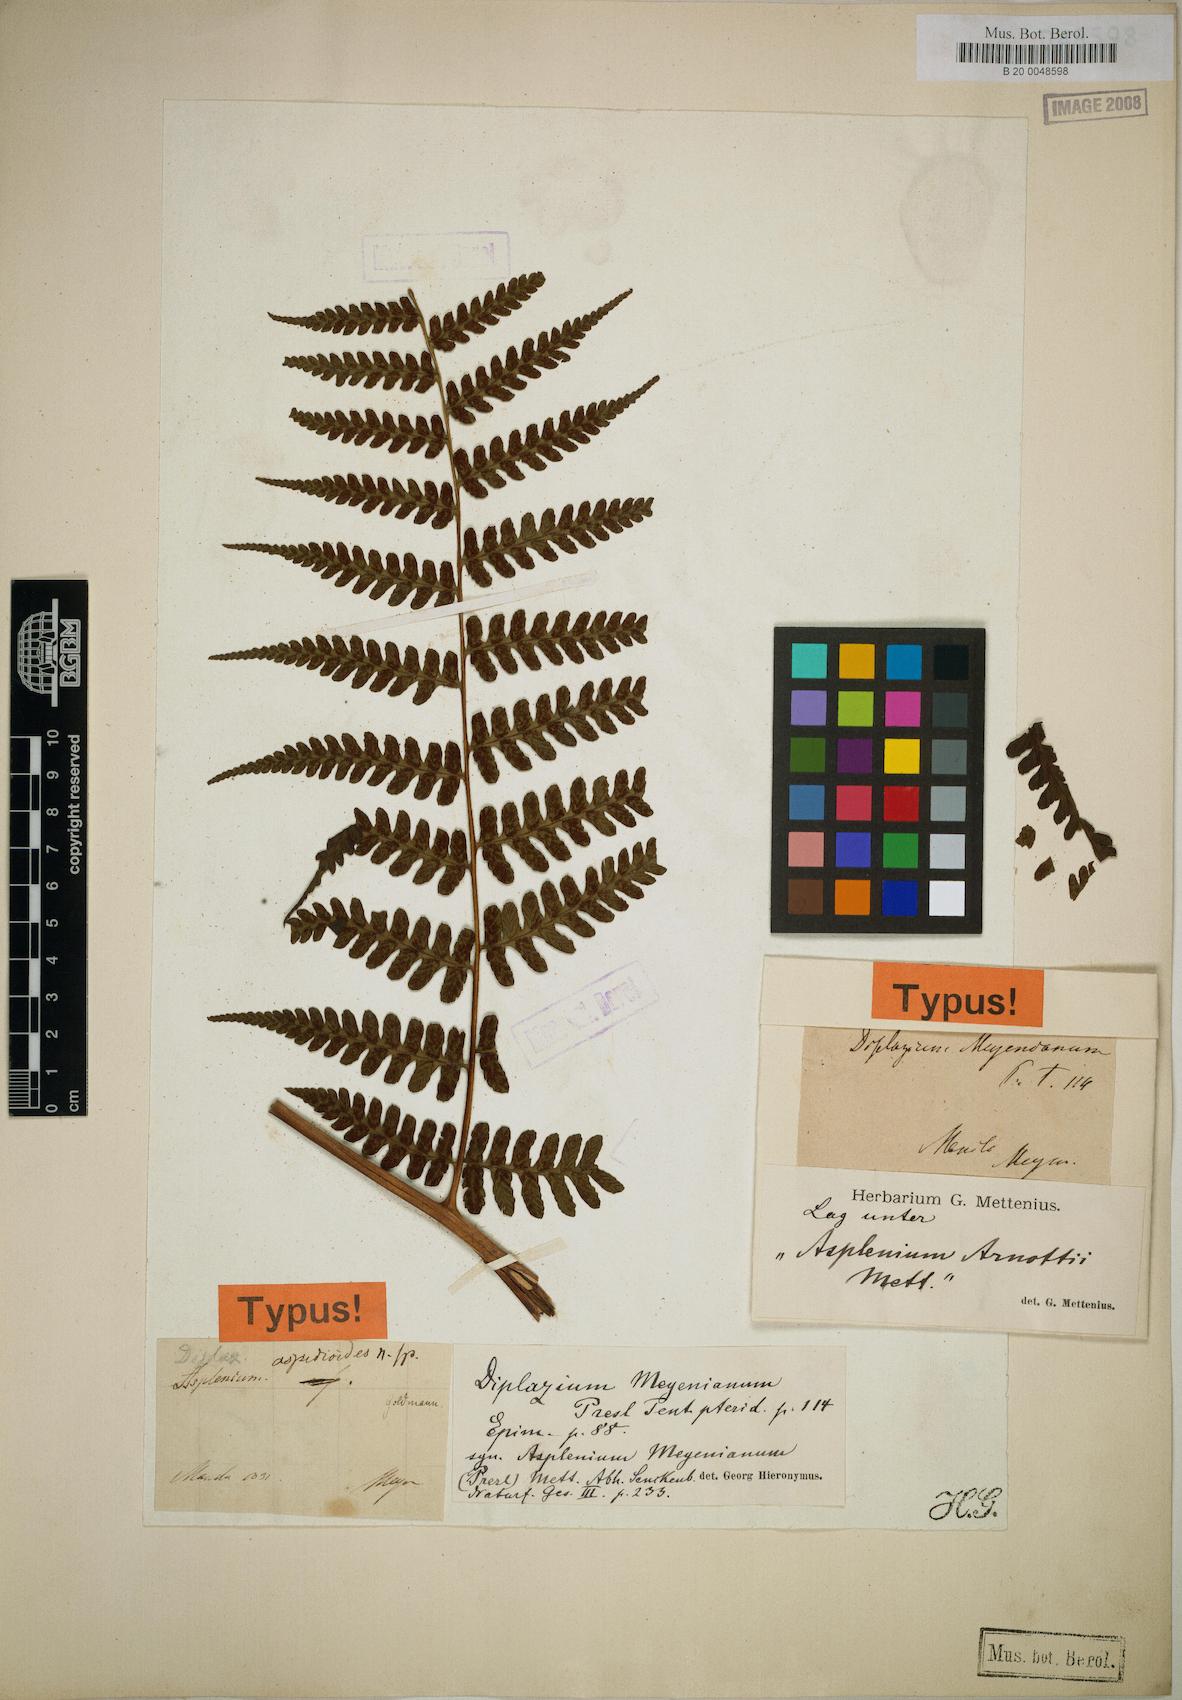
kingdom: Plantae
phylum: Tracheophyta
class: Polypodiopsida
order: Polypodiales
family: Athyriaceae
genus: Diplazium
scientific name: Diplazium melanopodium
